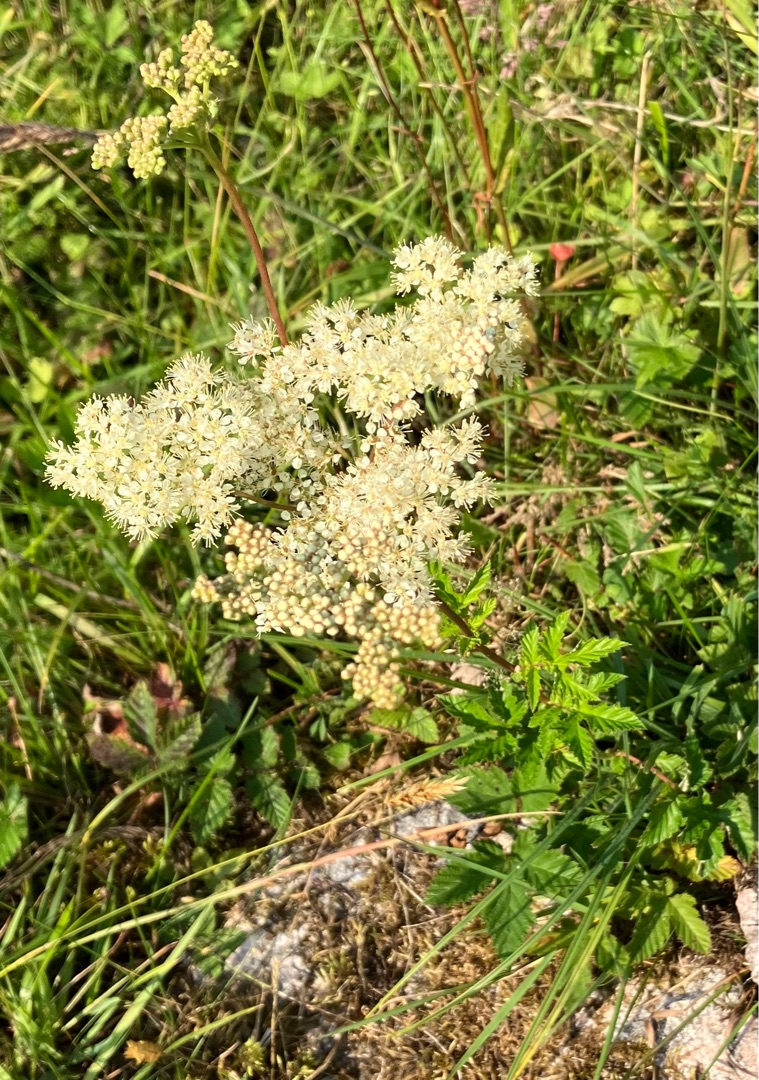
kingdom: Plantae
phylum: Tracheophyta
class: Magnoliopsida
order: Rosales
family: Rosaceae
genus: Filipendula
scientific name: Filipendula ulmaria
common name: Almindelig mjødurt
